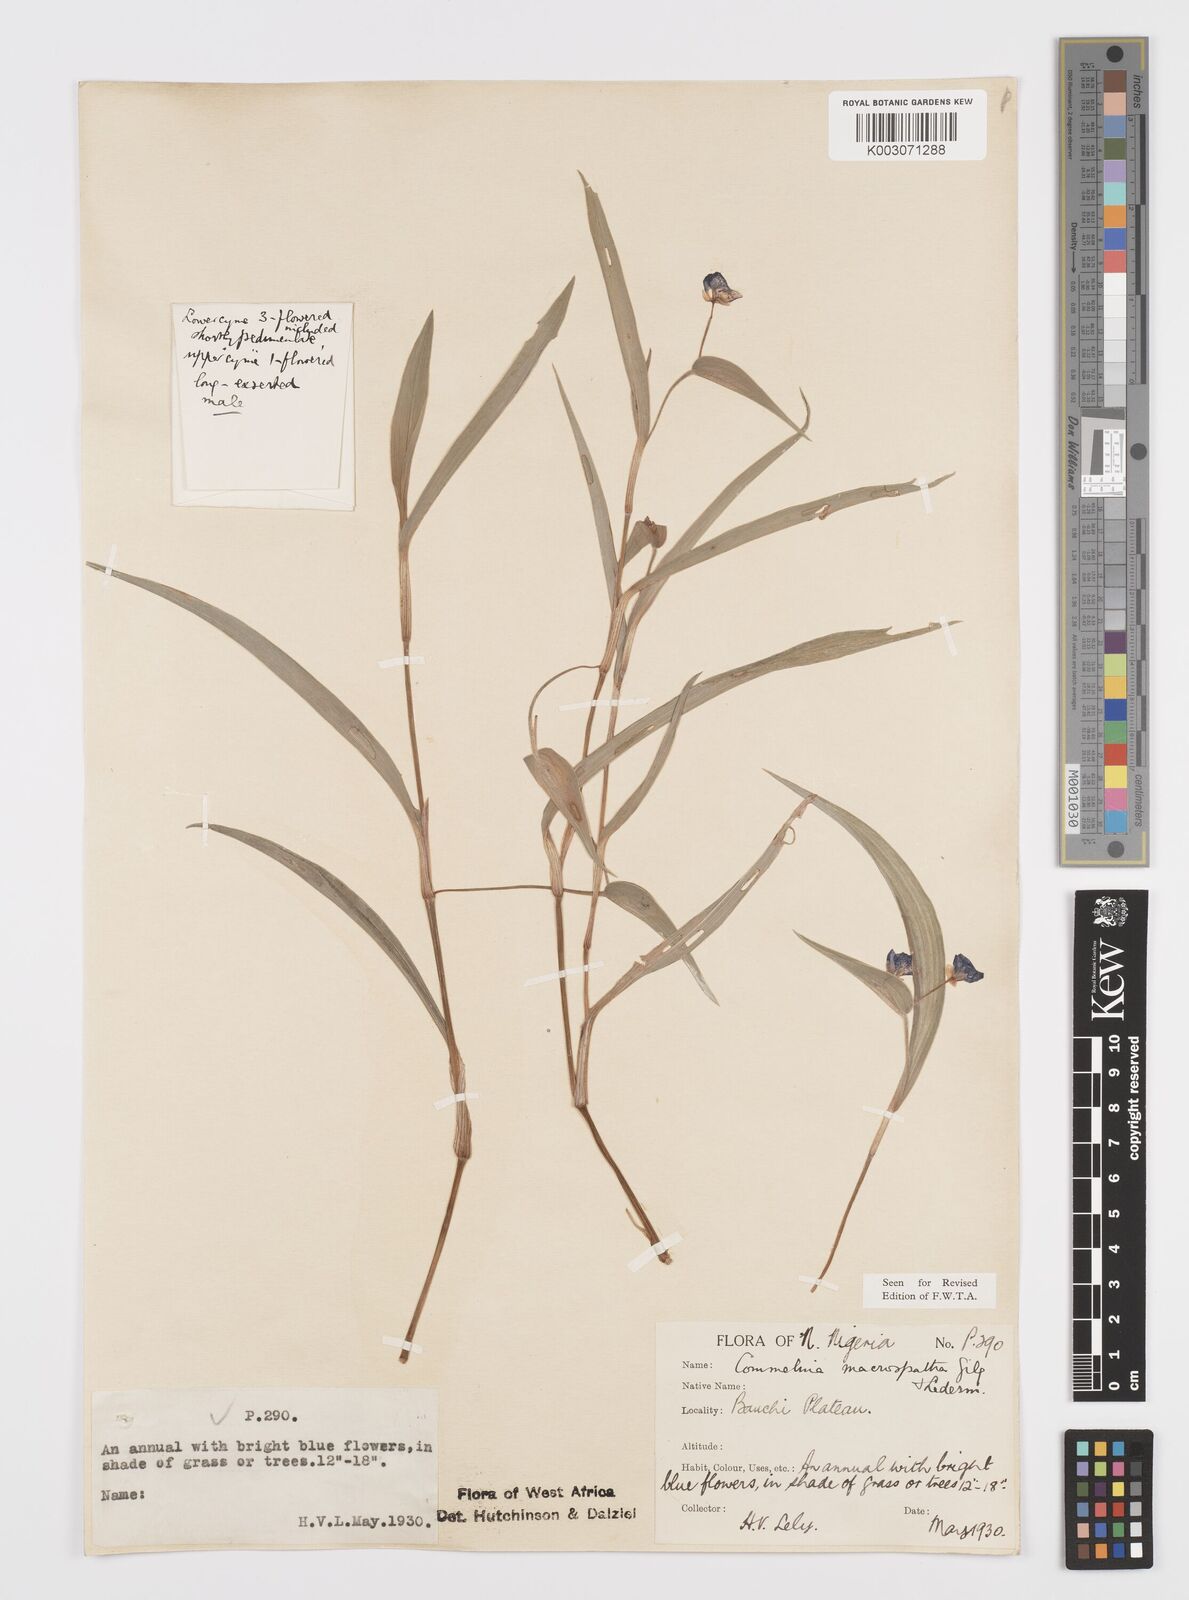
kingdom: Plantae
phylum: Tracheophyta
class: Liliopsida
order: Commelinales
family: Commelinaceae
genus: Commelina
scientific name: Commelina macrospatha
